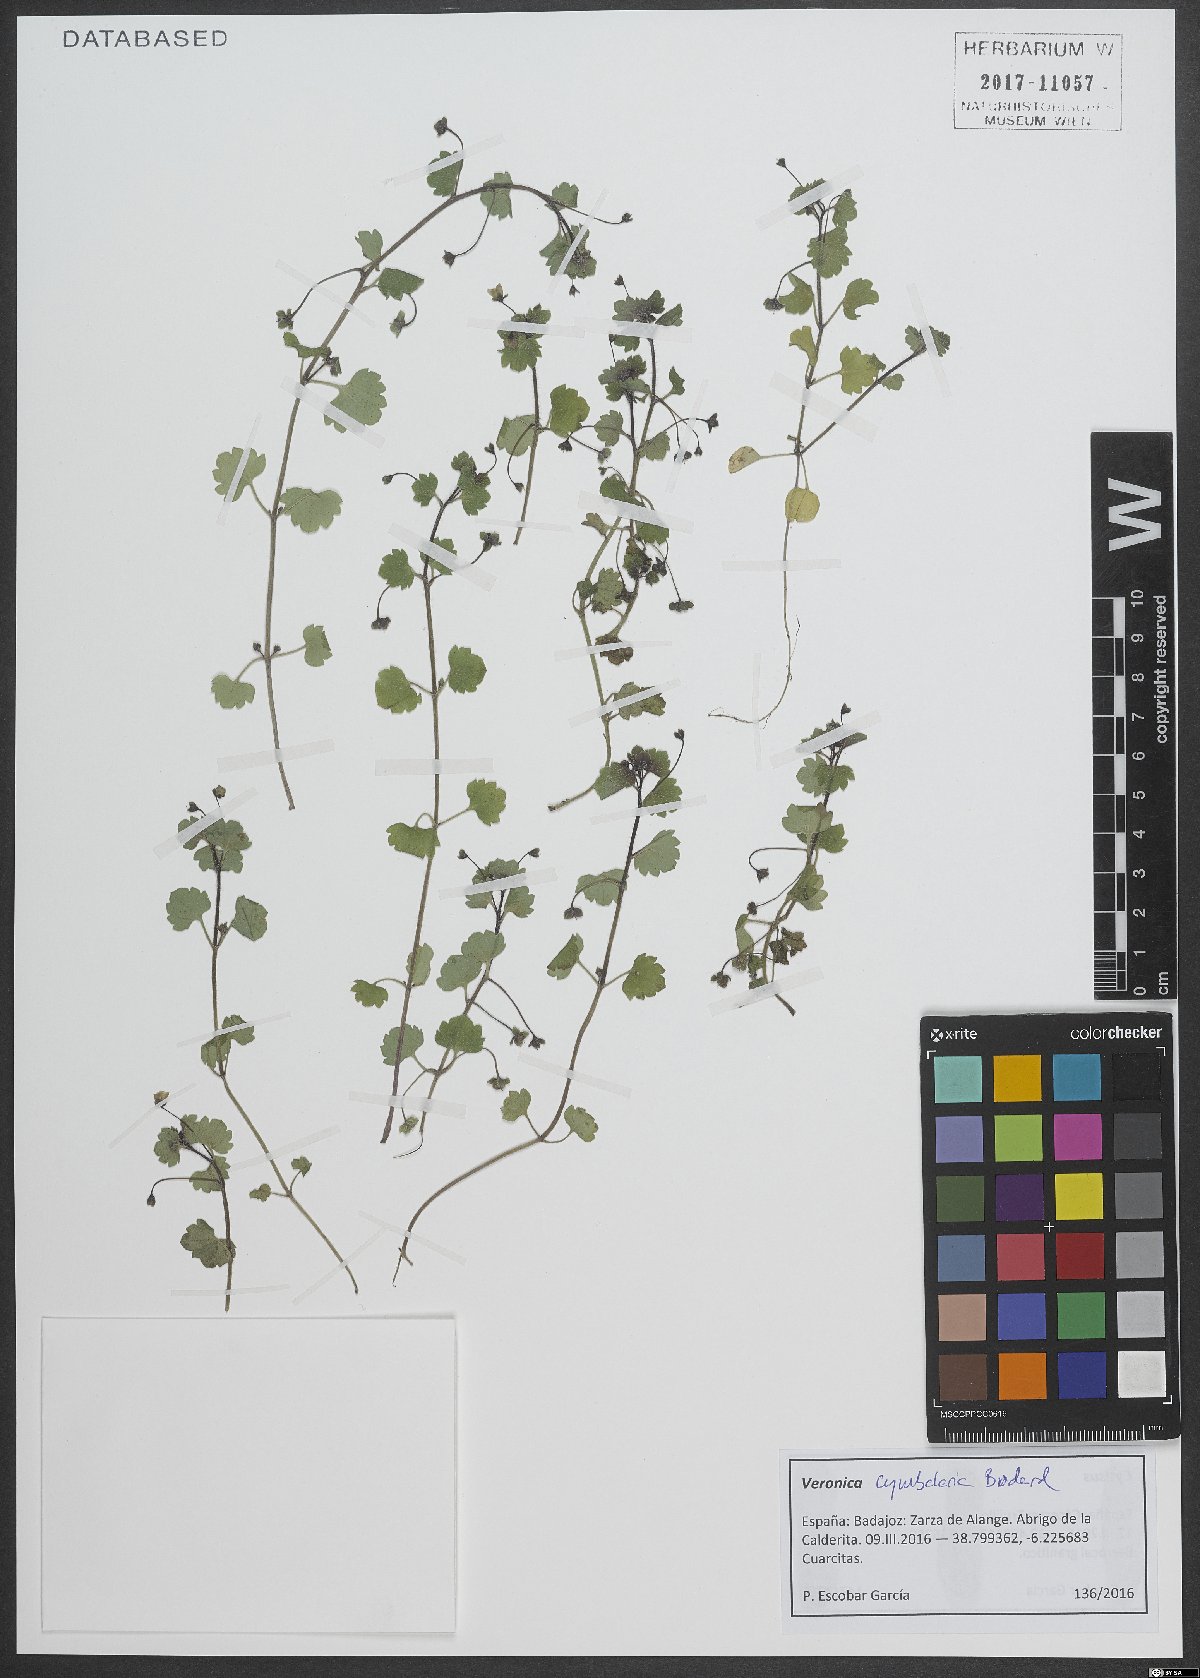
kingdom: Plantae
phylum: Tracheophyta
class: Magnoliopsida
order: Lamiales
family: Plantaginaceae
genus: Veronica
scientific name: Veronica cymbalaria
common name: Pale speedwell
